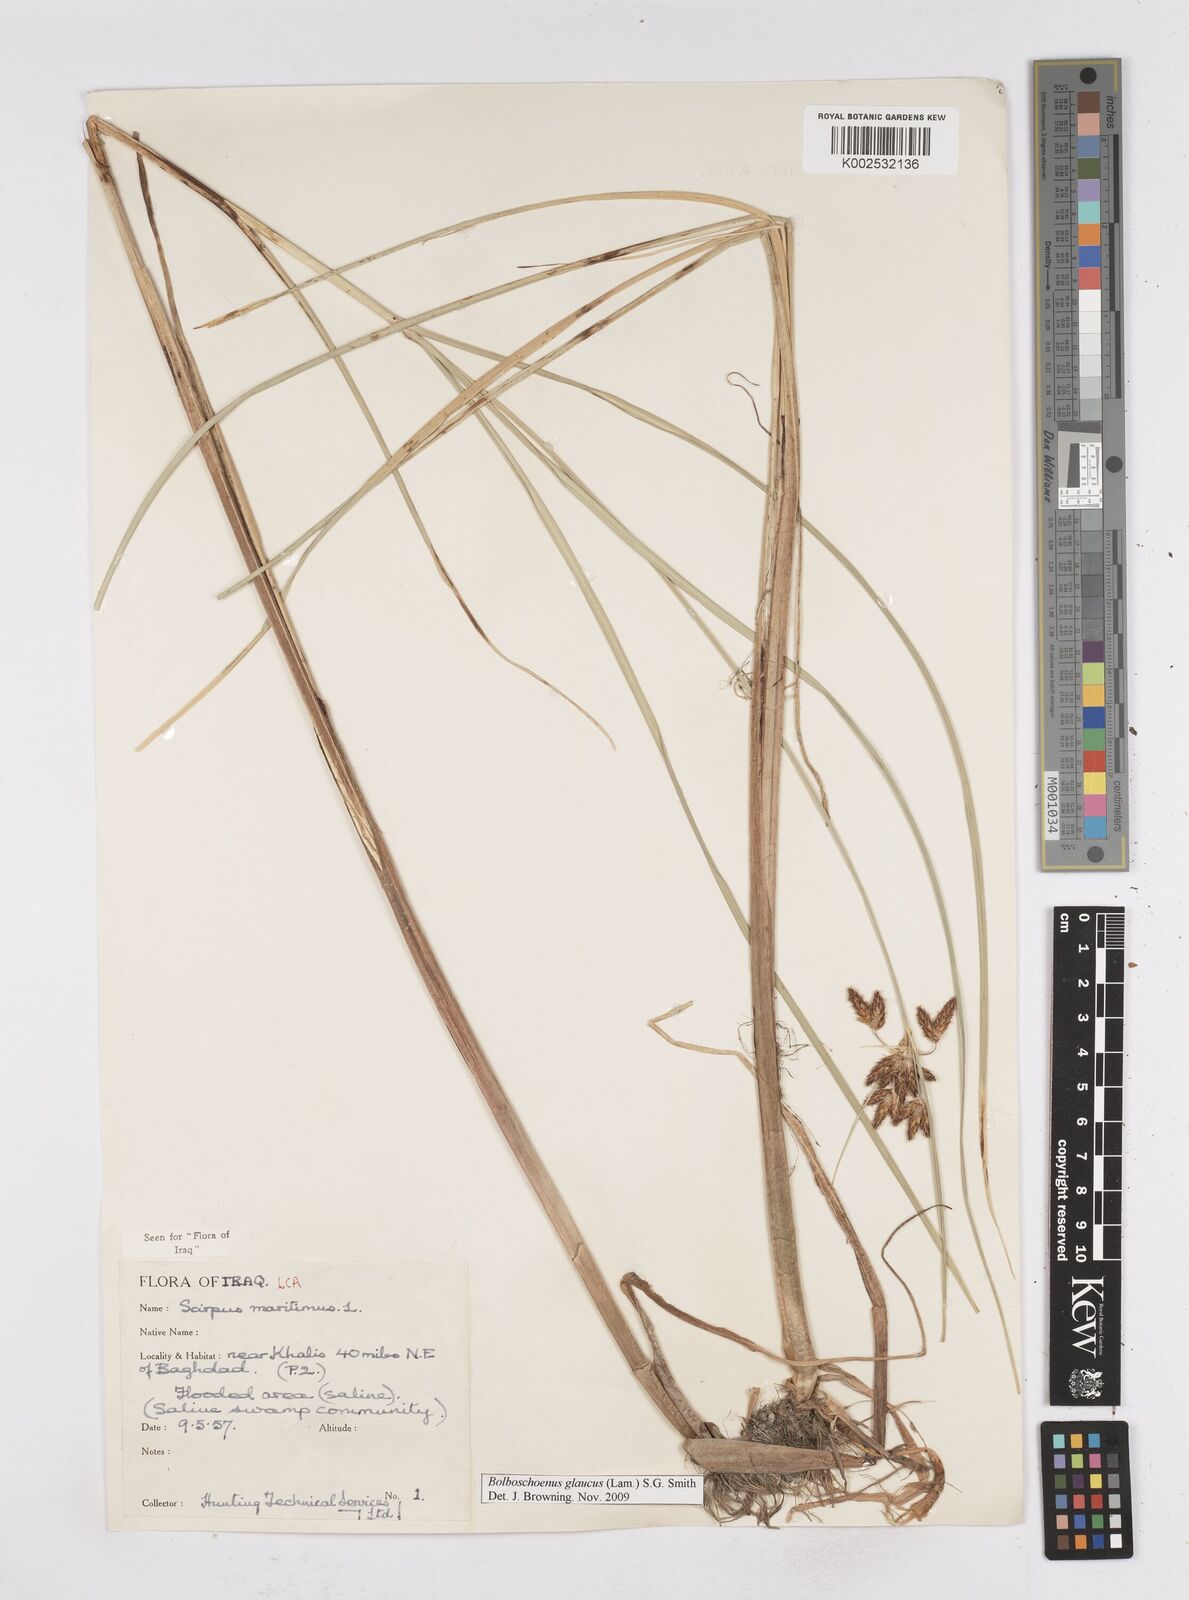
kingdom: Plantae
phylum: Tracheophyta
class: Liliopsida
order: Poales
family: Cyperaceae
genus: Bolboschoenus
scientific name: Bolboschoenus maritimus
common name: Sea club-rush
